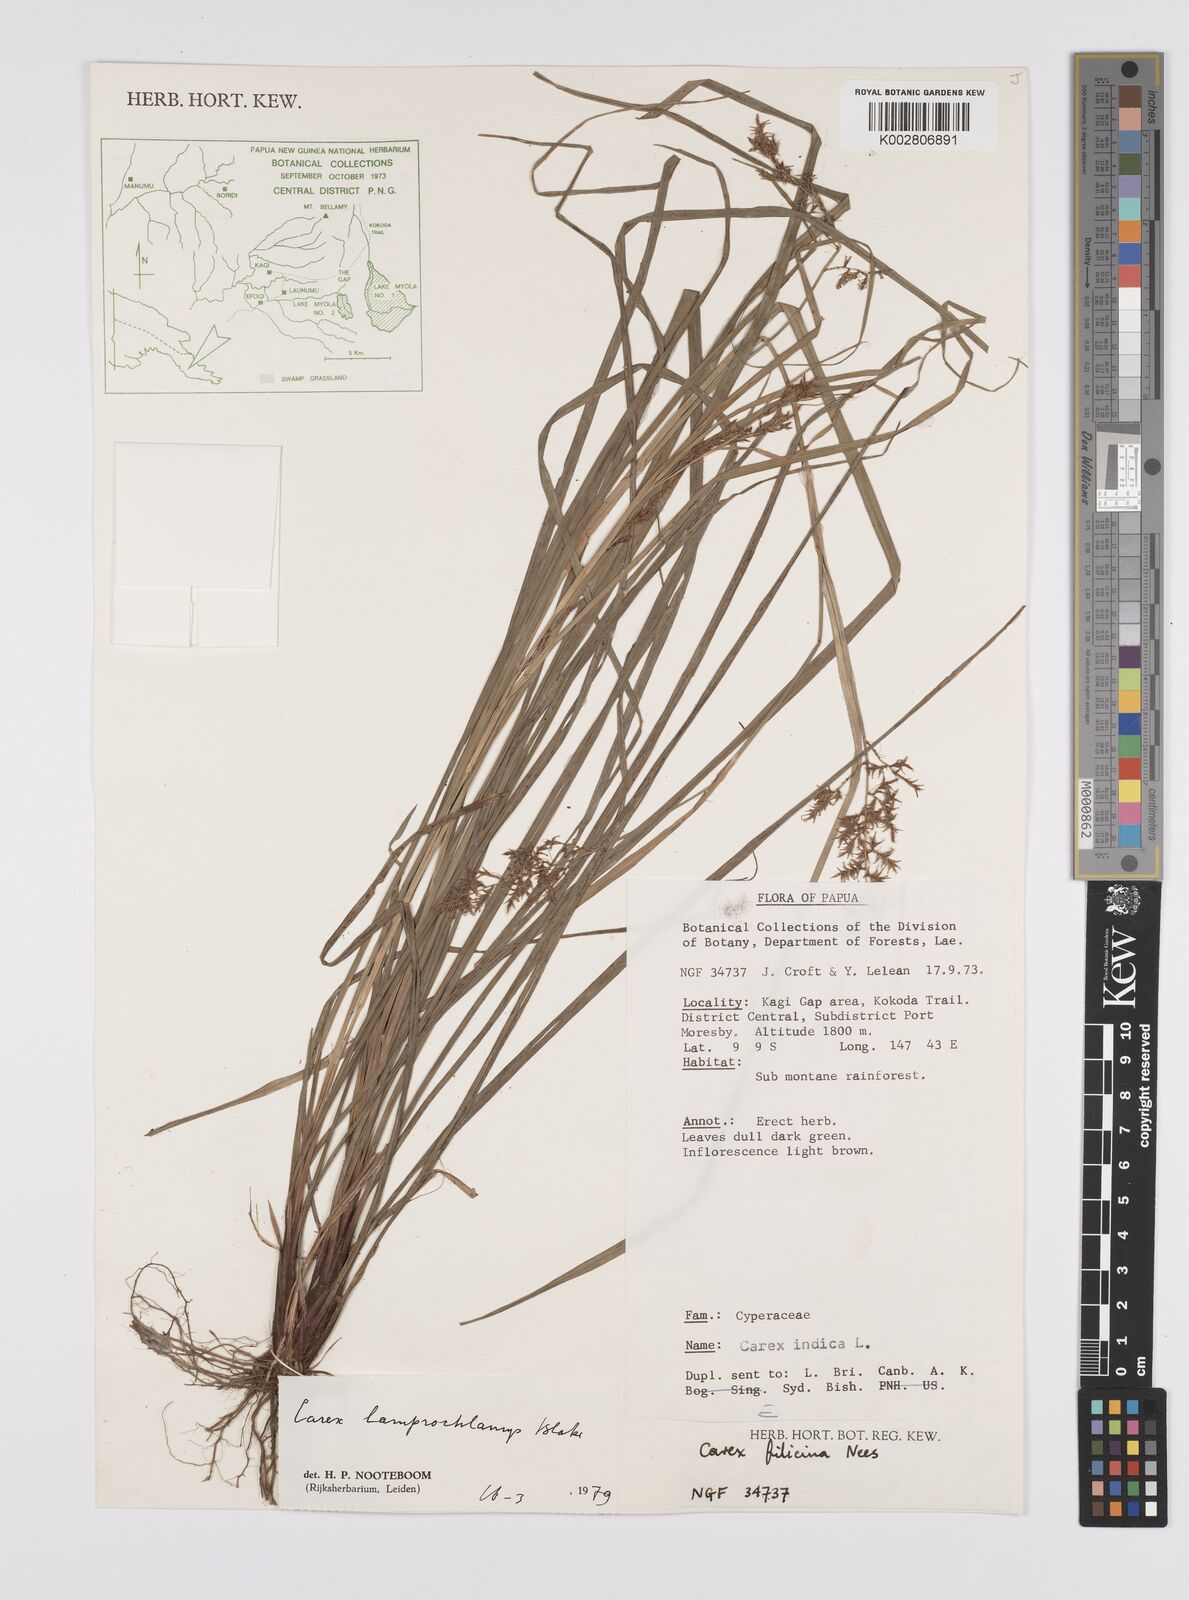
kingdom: Plantae
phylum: Tracheophyta
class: Liliopsida
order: Poales
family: Cyperaceae
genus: Carex
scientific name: Carex lamprochlamys
